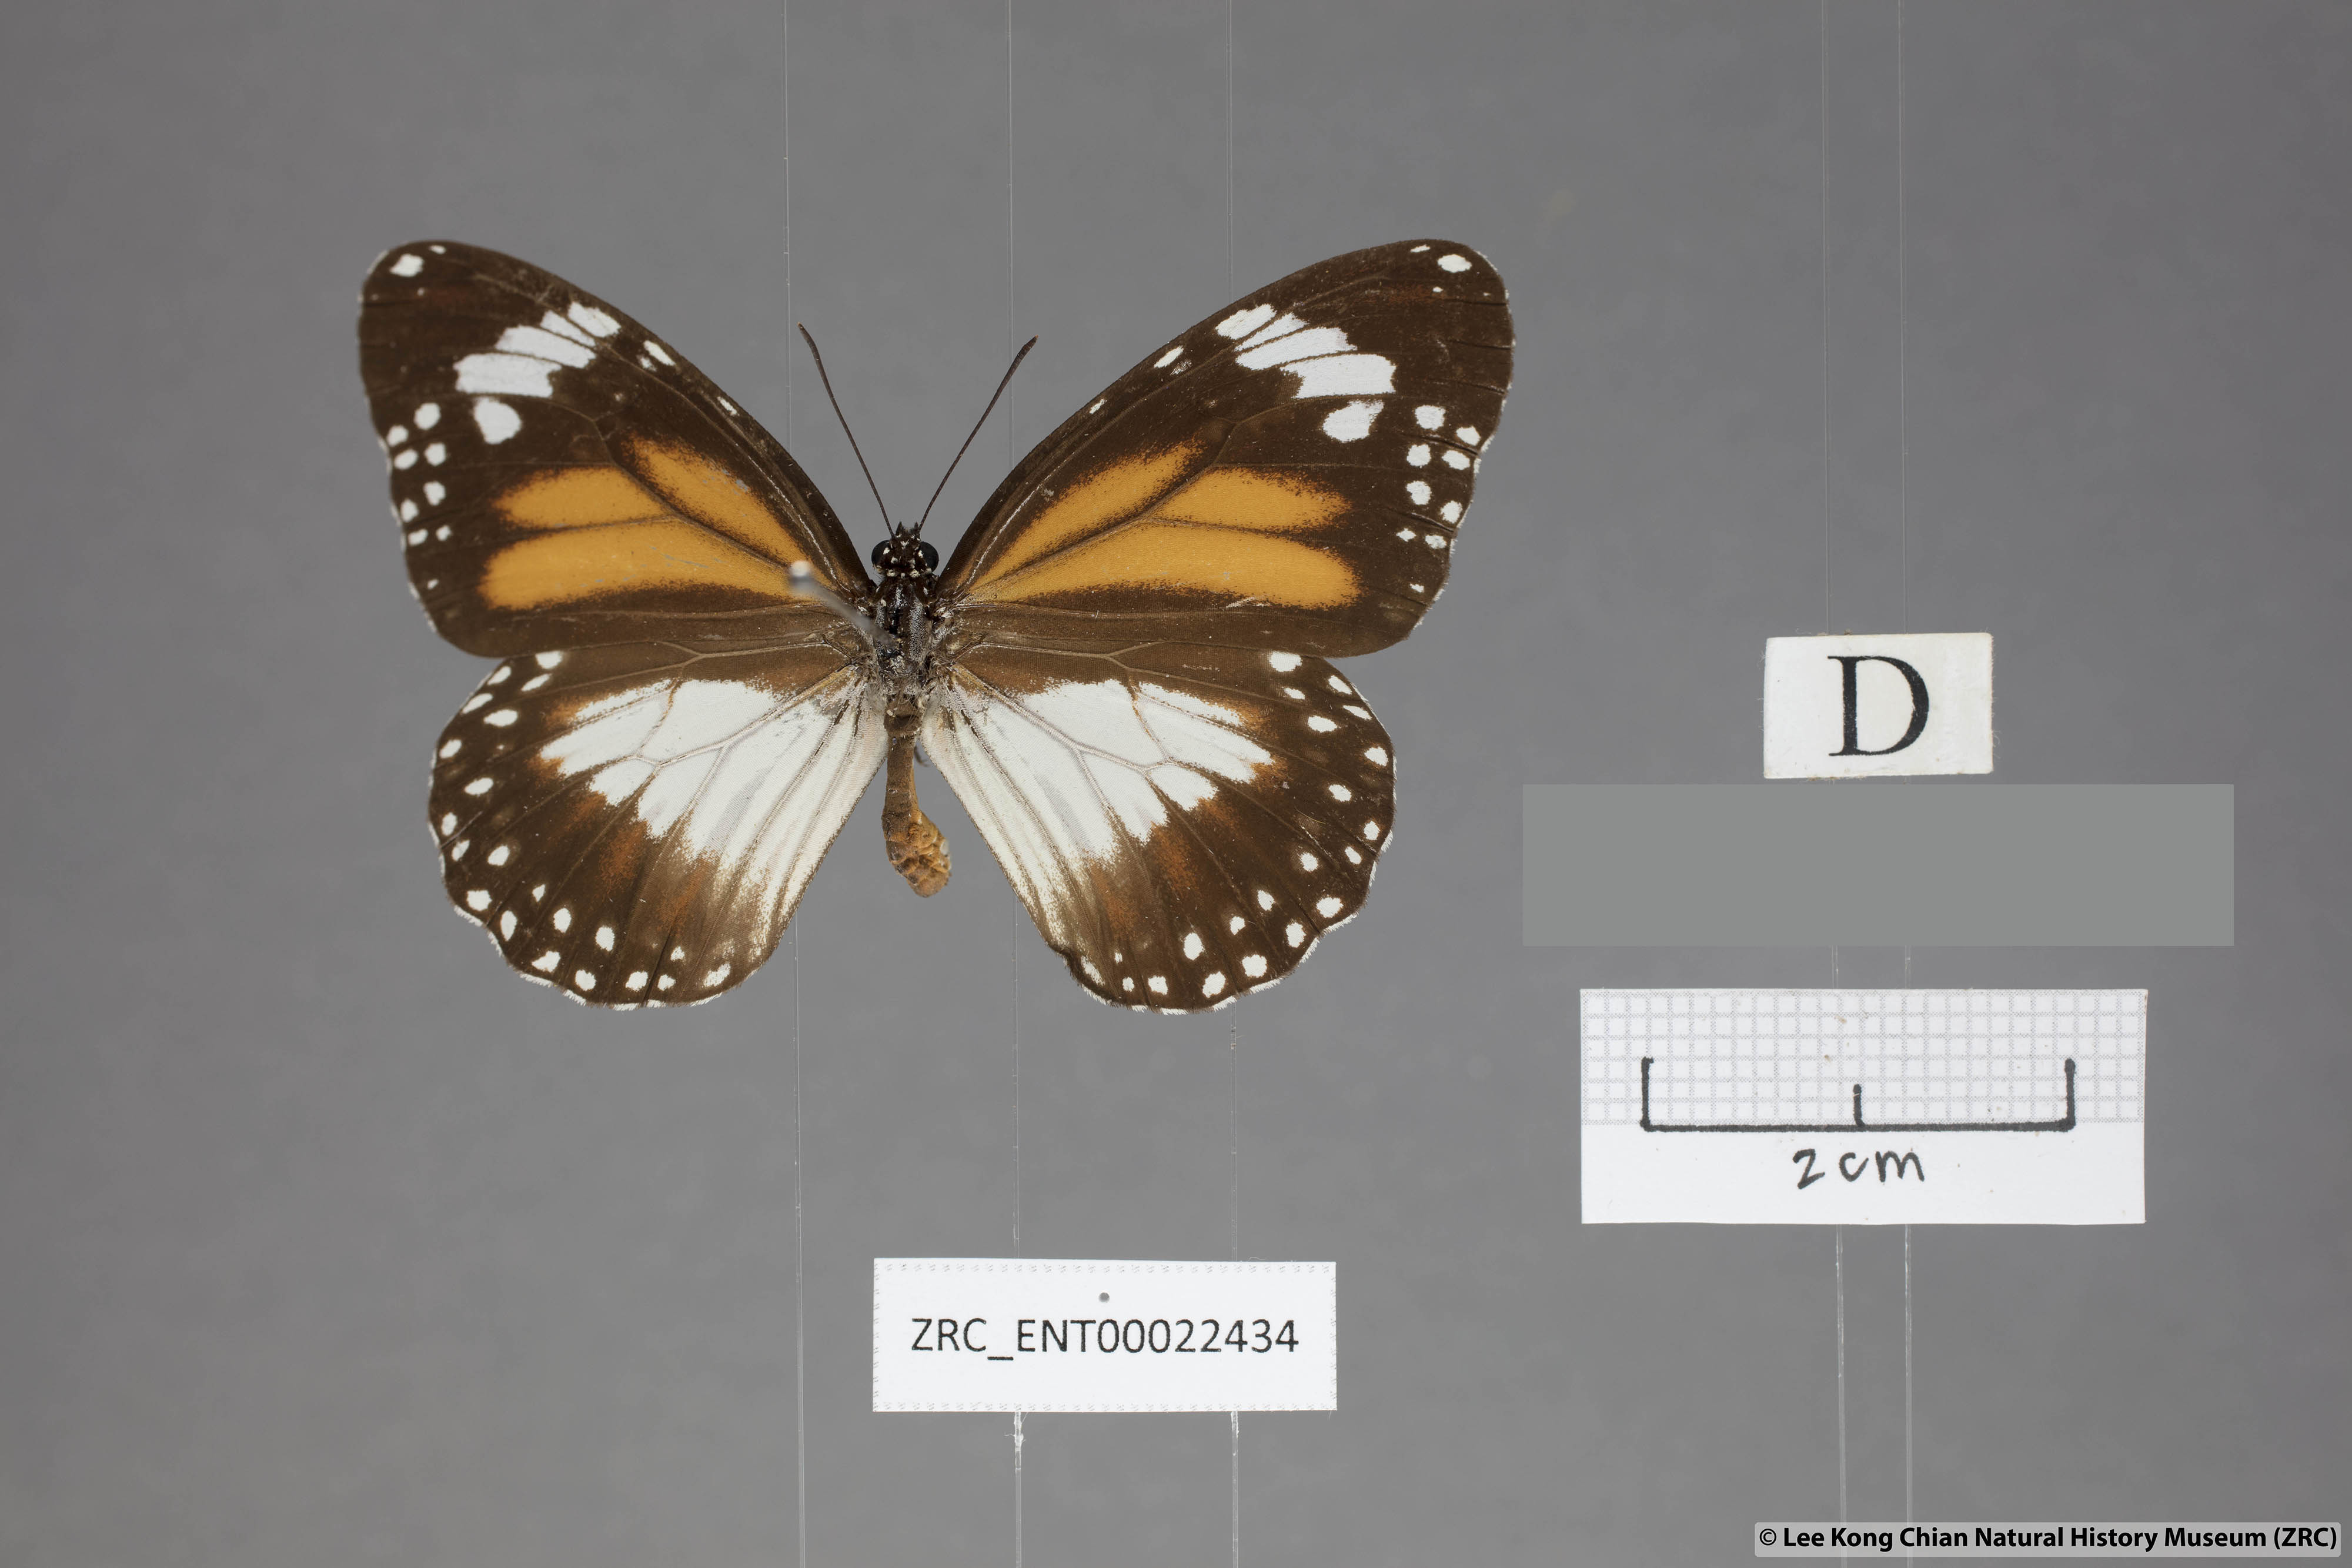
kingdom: Animalia
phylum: Arthropoda
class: Insecta
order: Lepidoptera
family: Nymphalidae
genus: Danaus
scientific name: Danaus affinis
